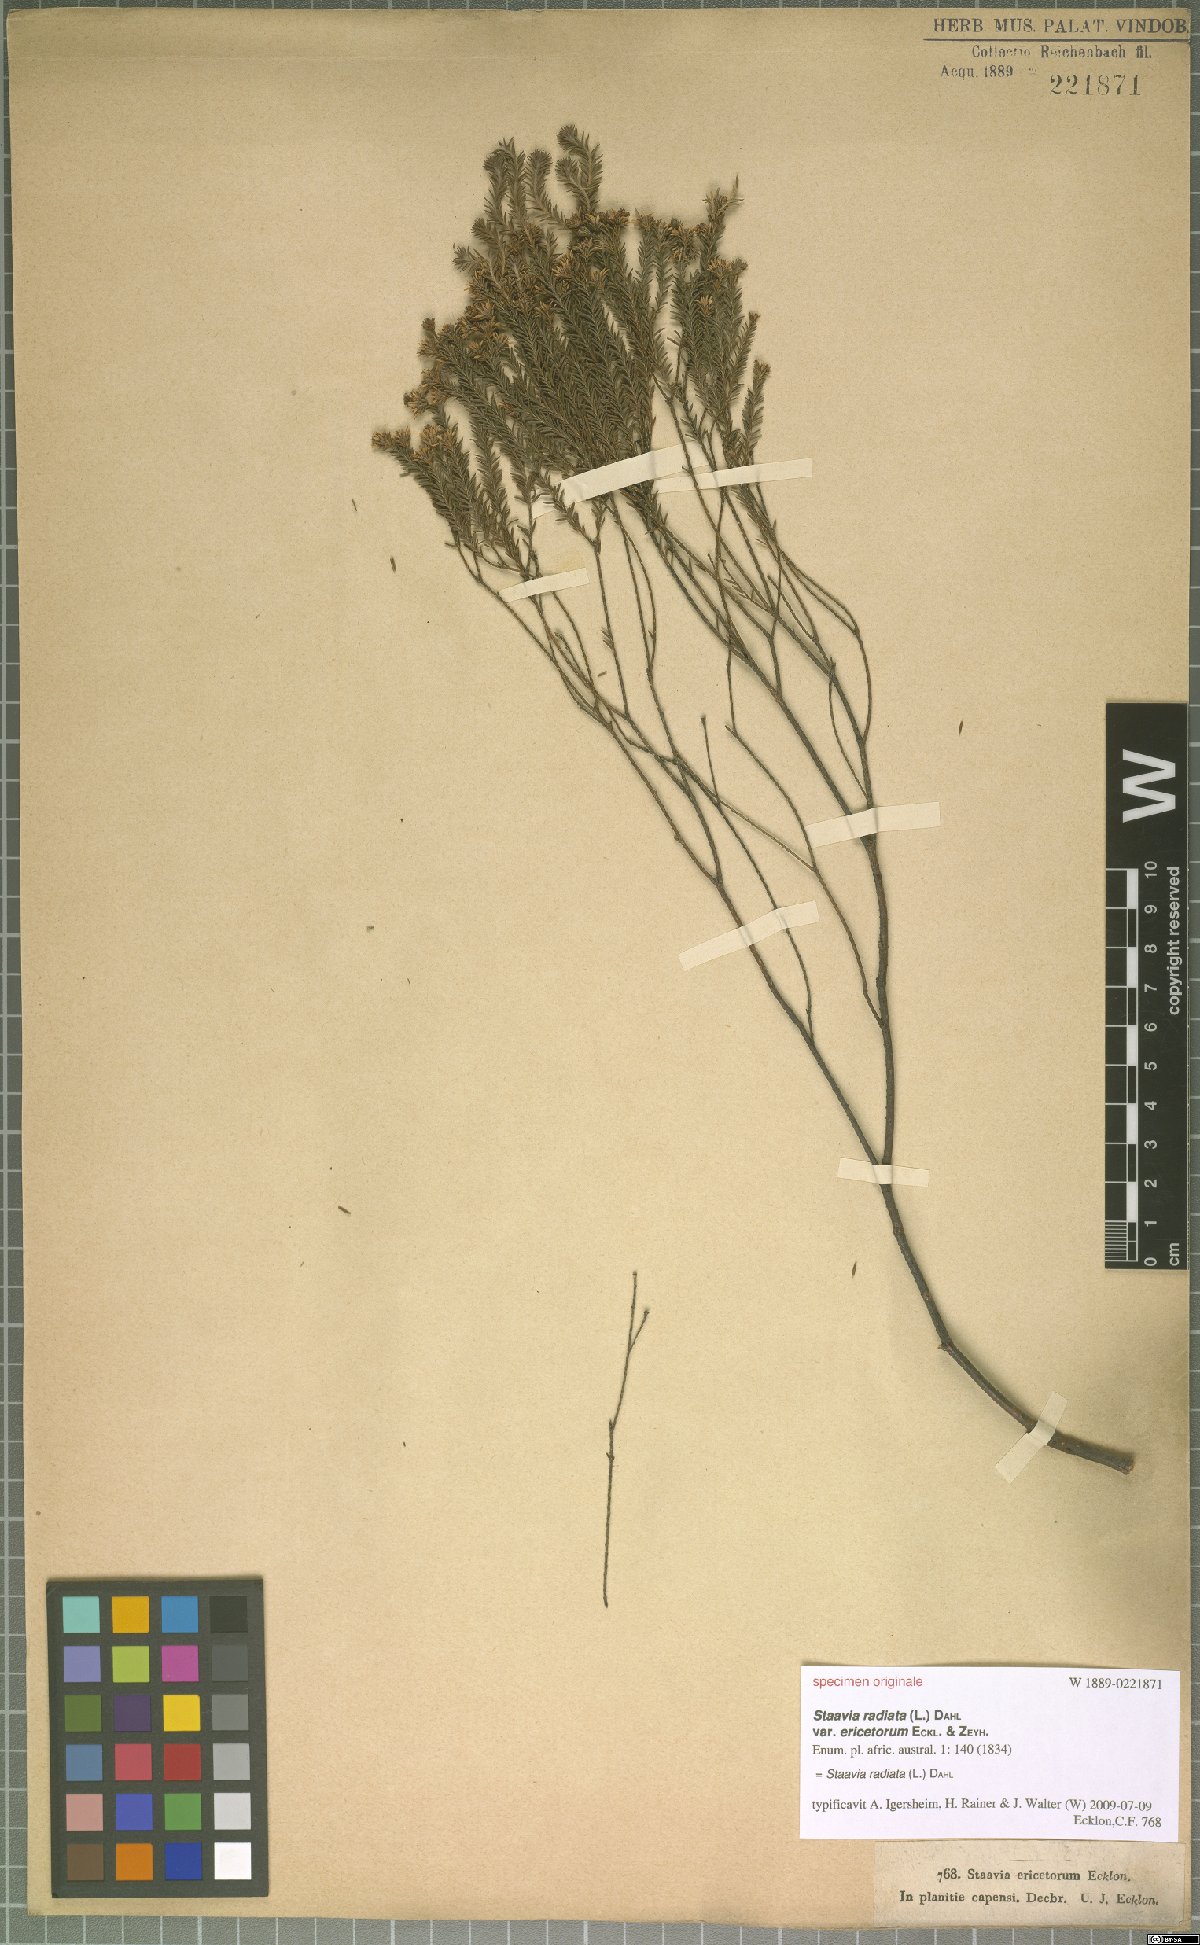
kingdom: Plantae
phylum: Tracheophyta
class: Magnoliopsida
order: Bruniales
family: Bruniaceae
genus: Staavia
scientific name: Staavia radiata
